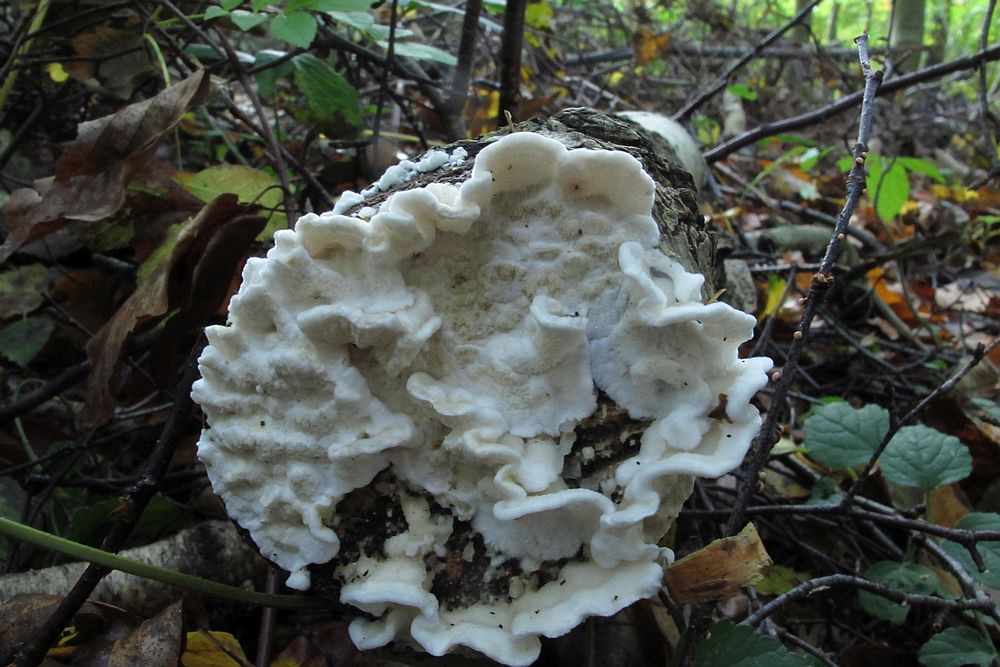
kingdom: Fungi
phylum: Basidiomycota
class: Agaricomycetes
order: Polyporales
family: Irpicaceae
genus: Byssomerulius
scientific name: Byssomerulius corium
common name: læder-åresvamp
